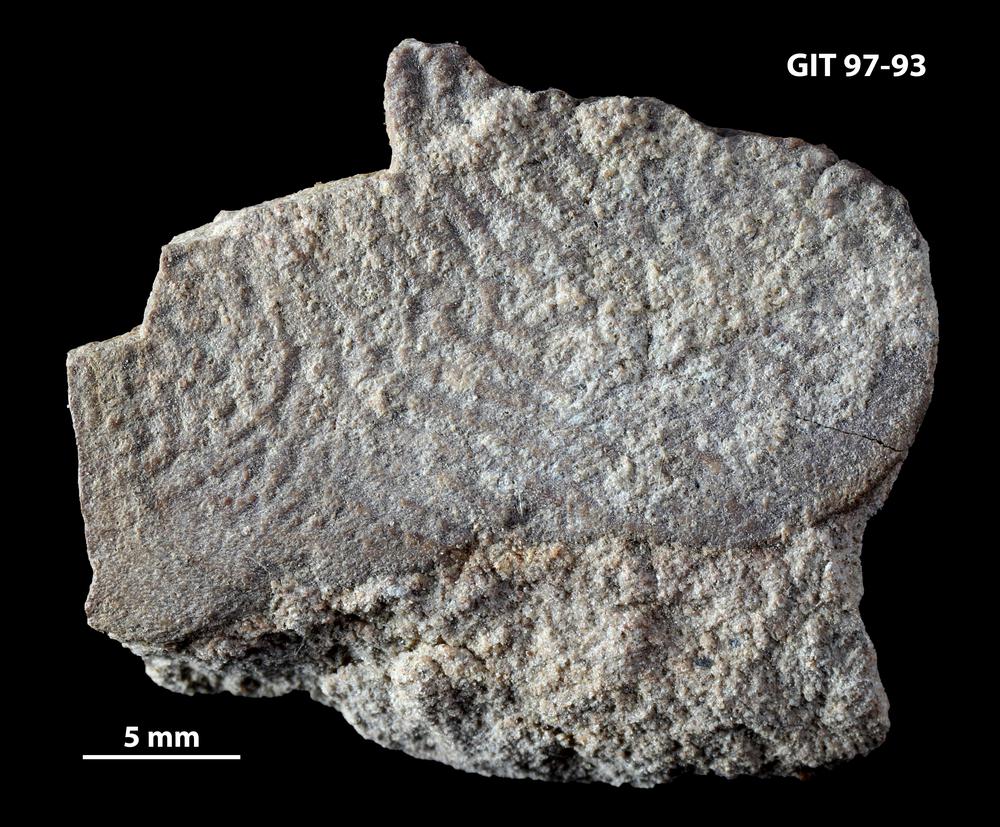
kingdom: Animalia
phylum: Chordata
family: Holonematidae
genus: Holonema
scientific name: Holonema
